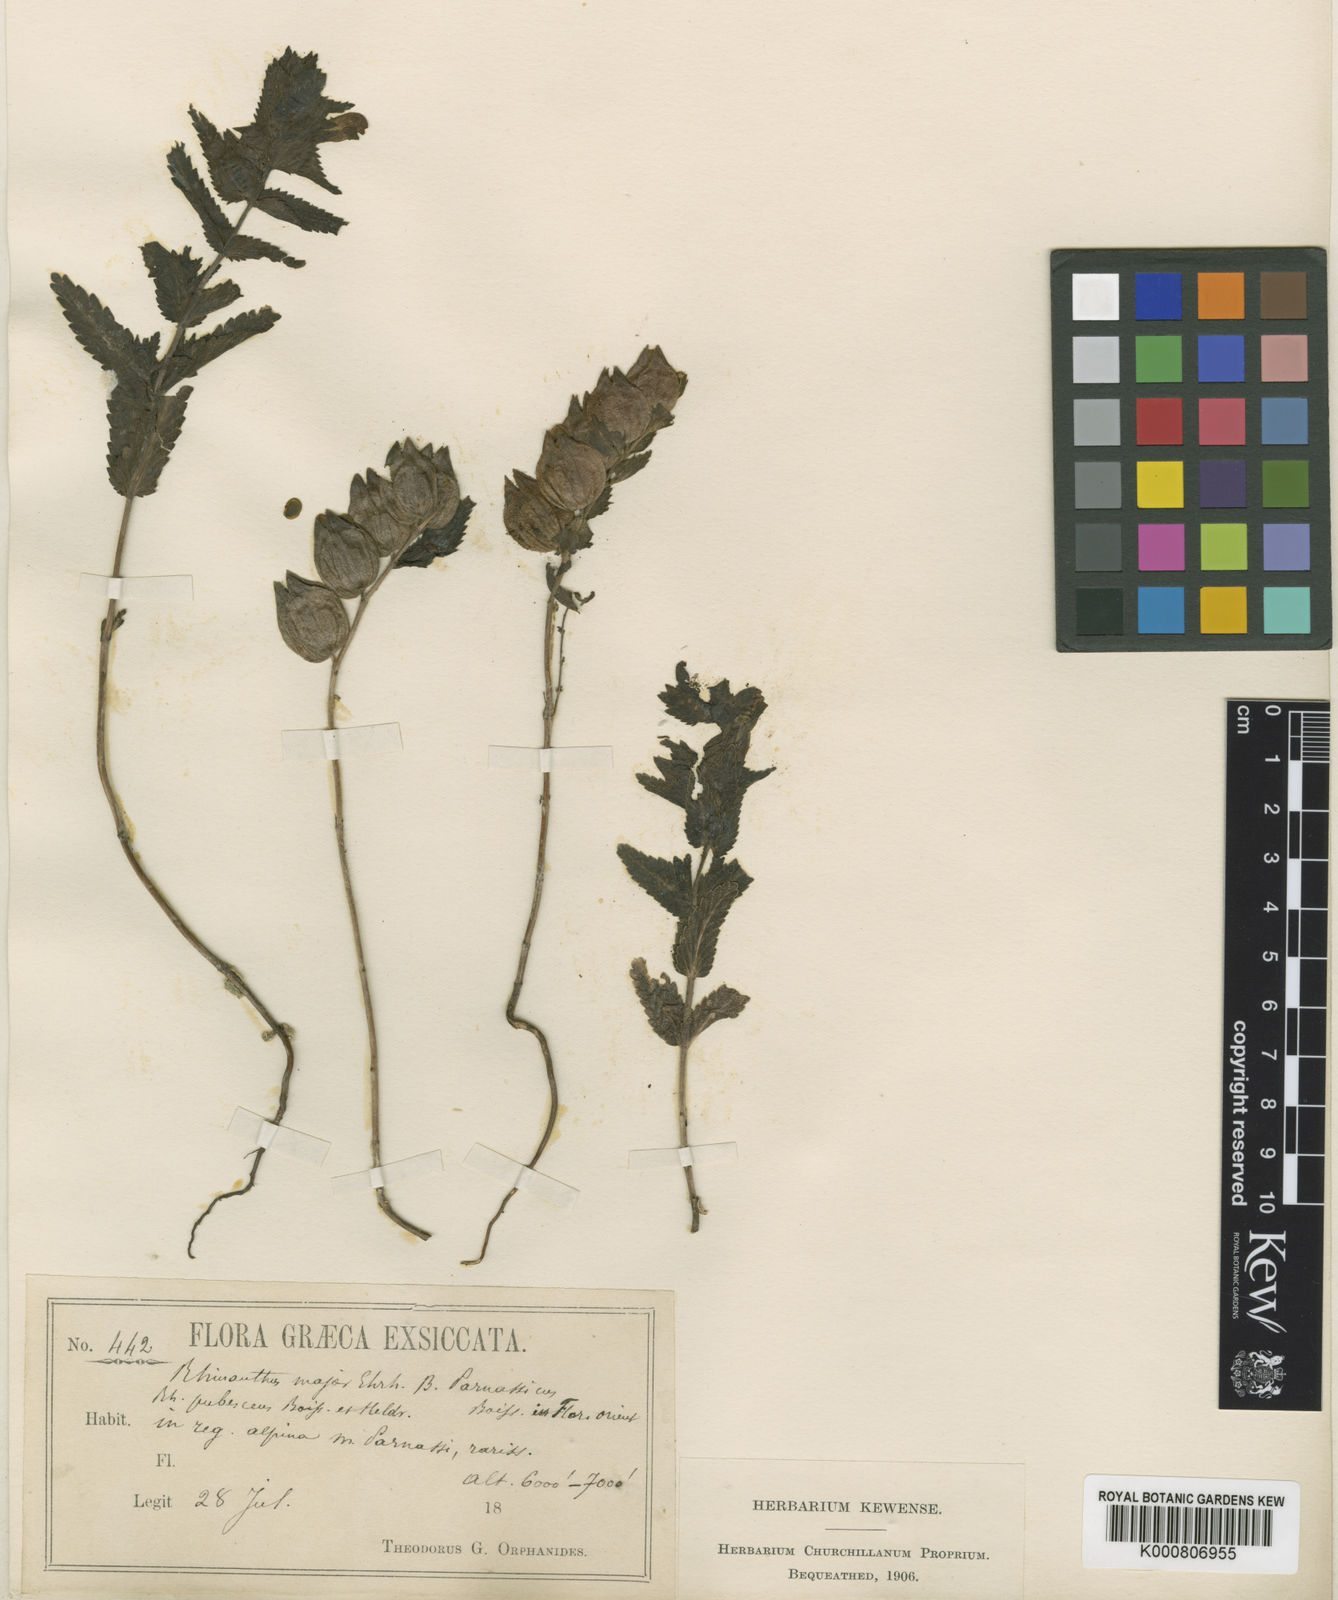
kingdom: Plantae
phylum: Tracheophyta
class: Magnoliopsida
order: Lamiales
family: Orobanchaceae
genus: Rhinanthus
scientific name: Rhinanthus
